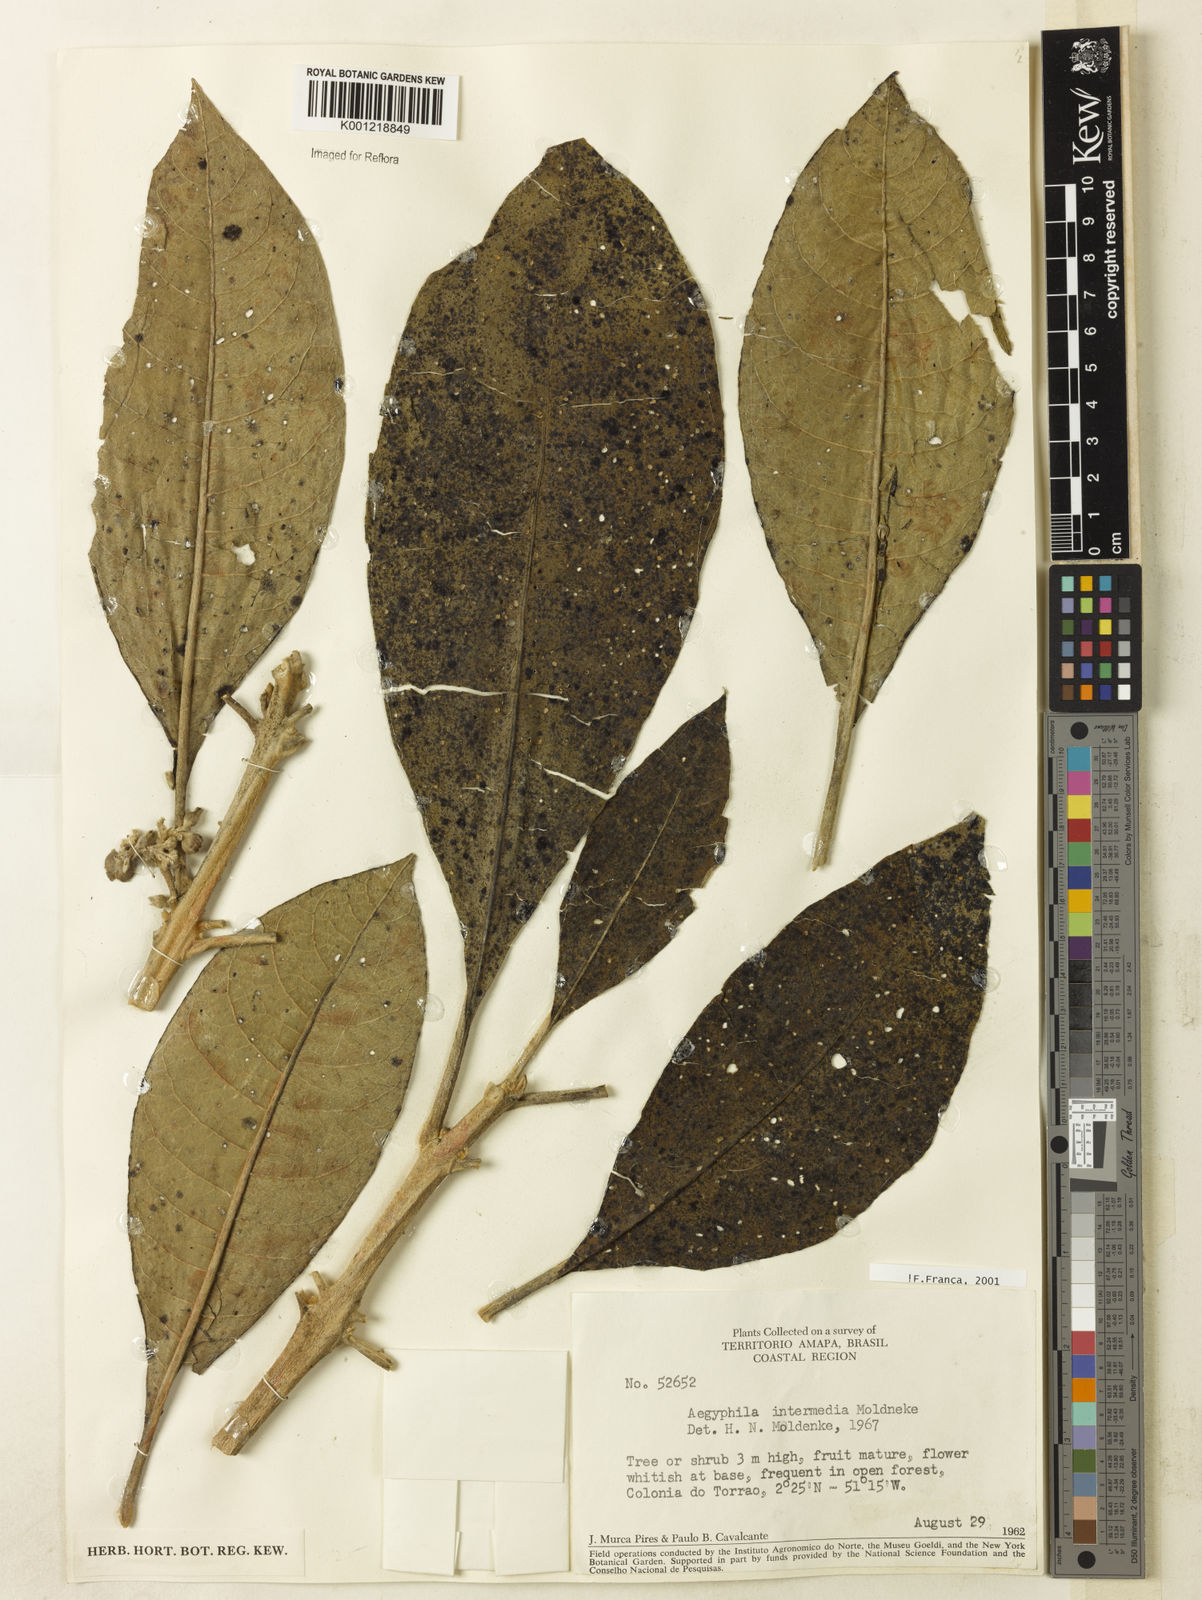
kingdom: Plantae
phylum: Tracheophyta
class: Magnoliopsida
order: Lamiales
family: Lamiaceae
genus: Aegiphila
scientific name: Aegiphila intermedia
